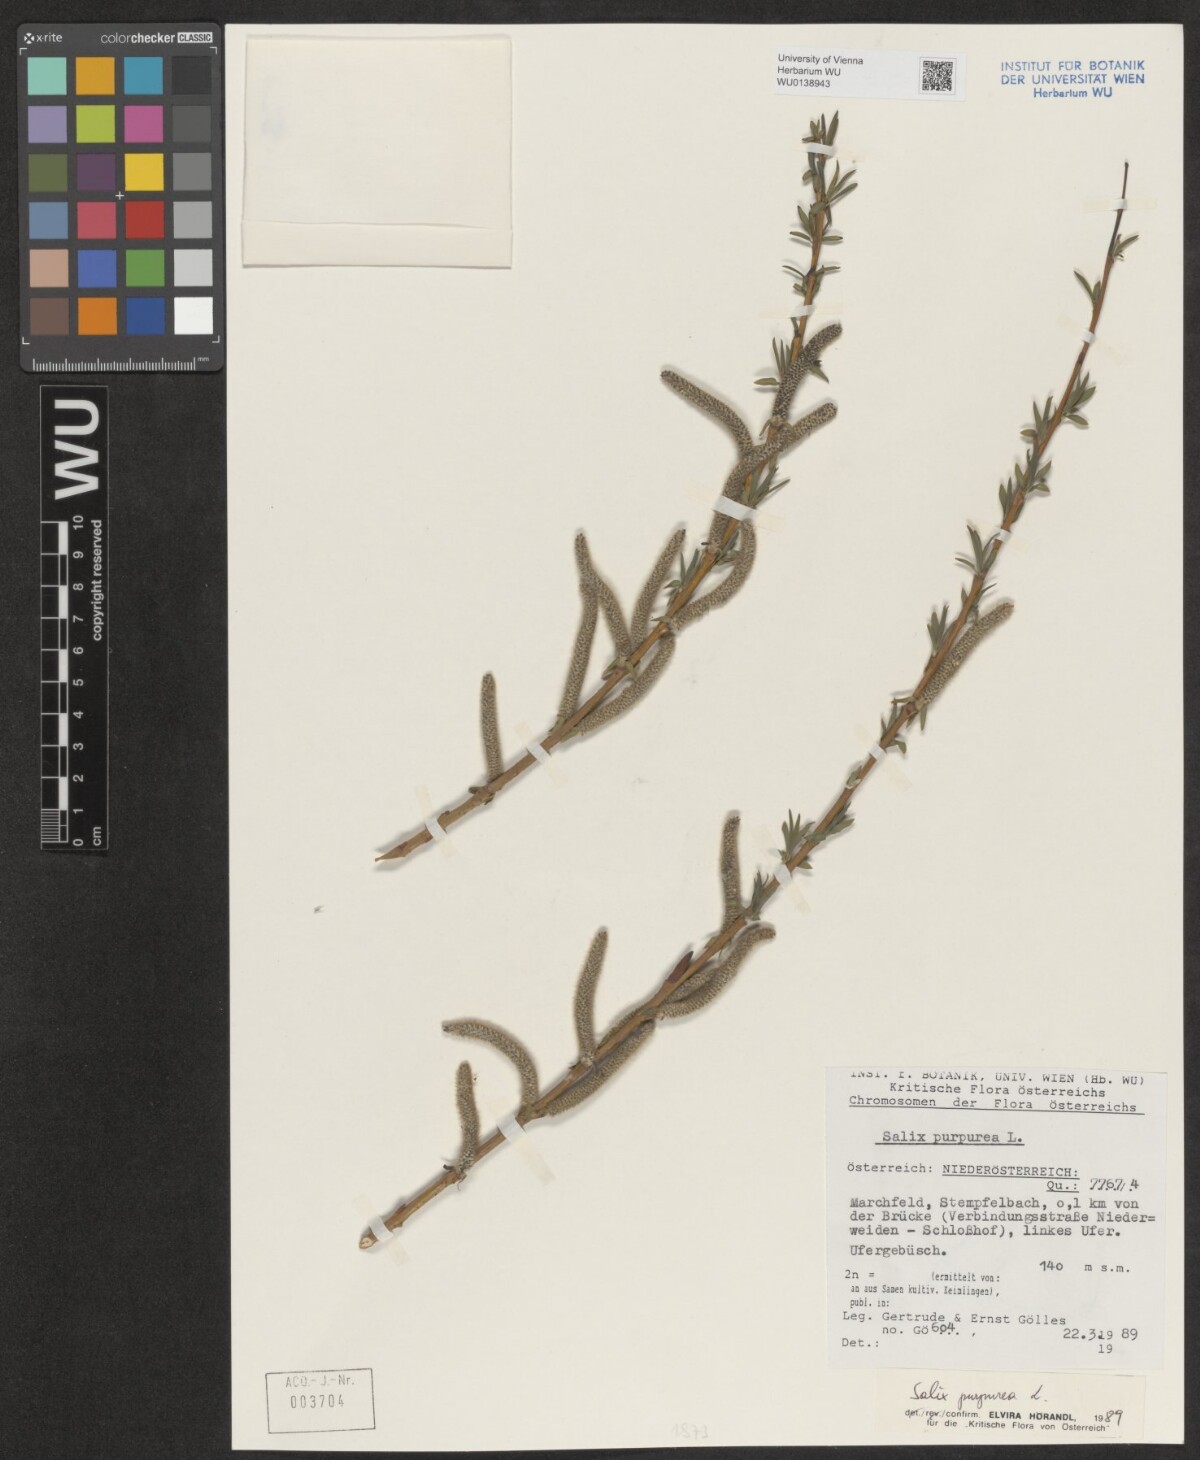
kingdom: Plantae
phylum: Tracheophyta
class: Magnoliopsida
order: Malpighiales
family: Salicaceae
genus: Salix
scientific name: Salix purpurea
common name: Purple willow
